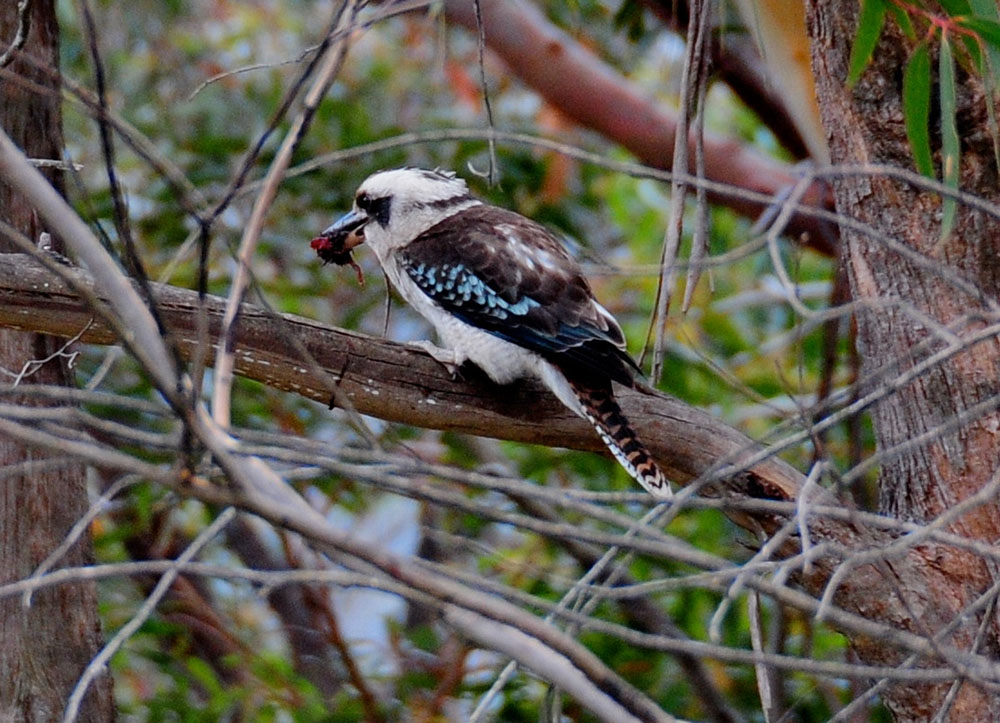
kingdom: Animalia
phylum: Chordata
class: Aves
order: Coraciiformes
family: Alcedinidae
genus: Dacelo
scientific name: Dacelo novaeguineae
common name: Laughing kookaburra
